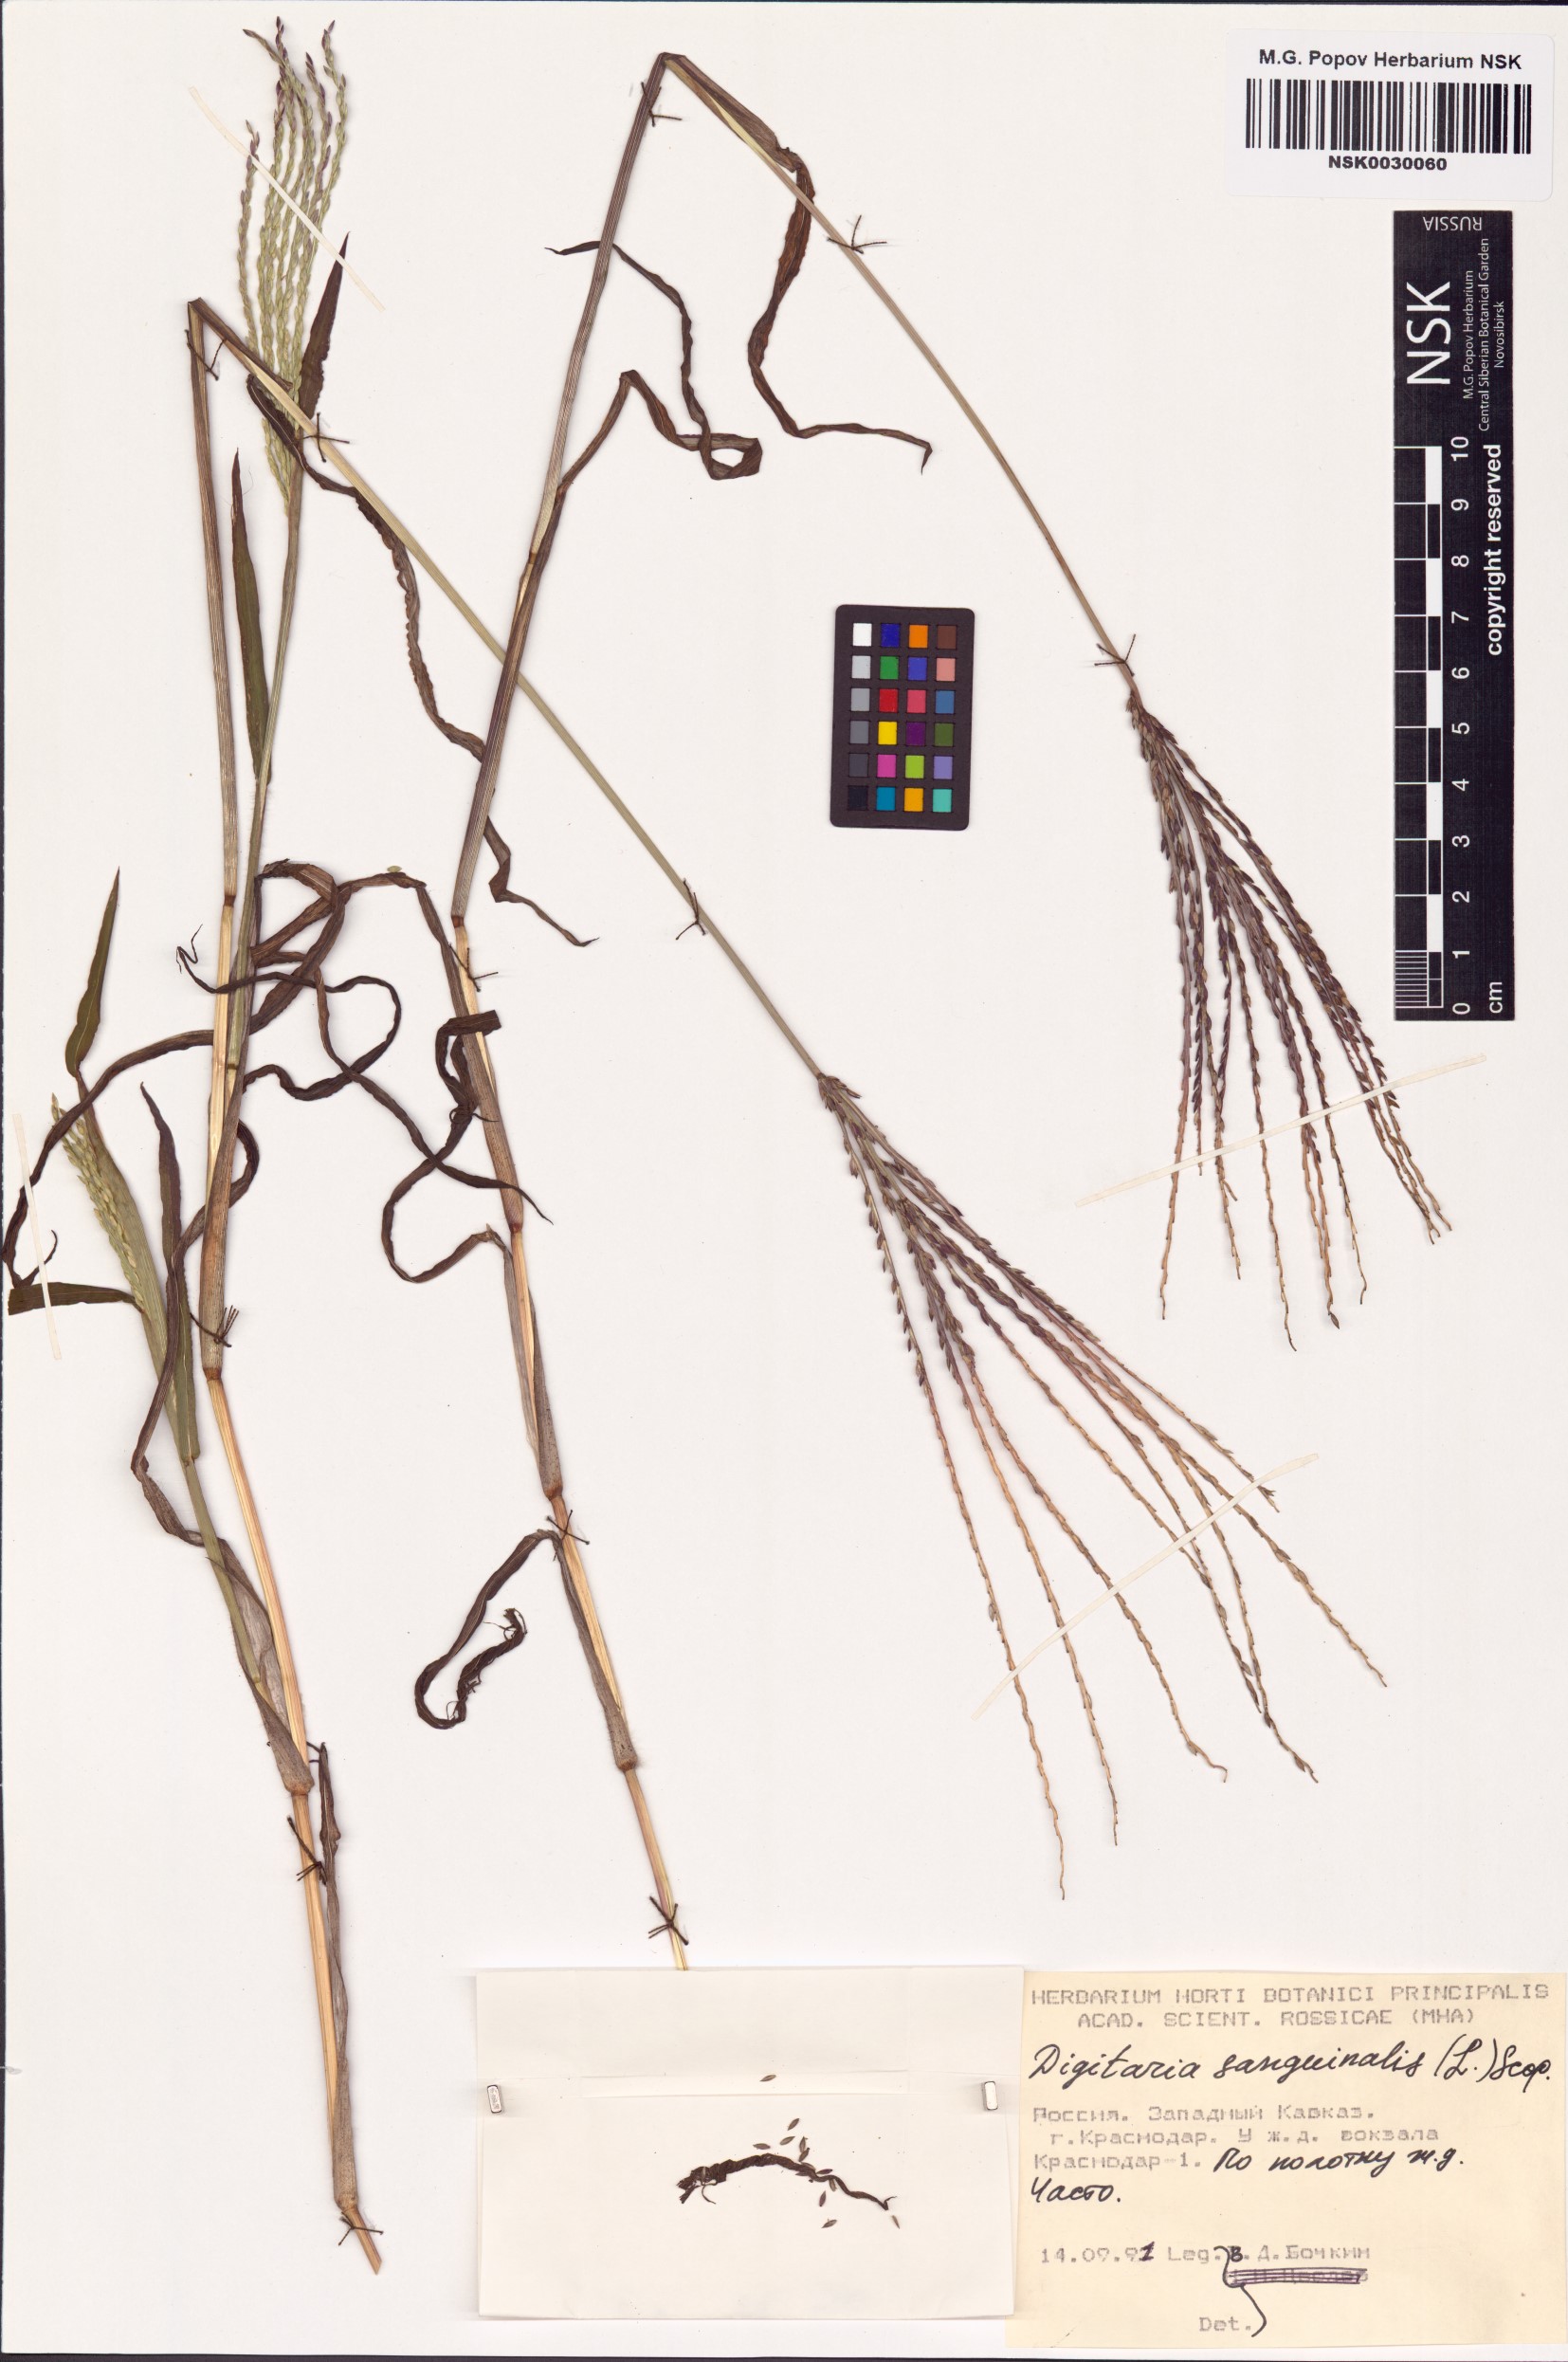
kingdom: Plantae
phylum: Tracheophyta
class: Liliopsida
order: Poales
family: Poaceae
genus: Digitaria
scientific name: Digitaria sanguinalis
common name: Hairy crabgrass
